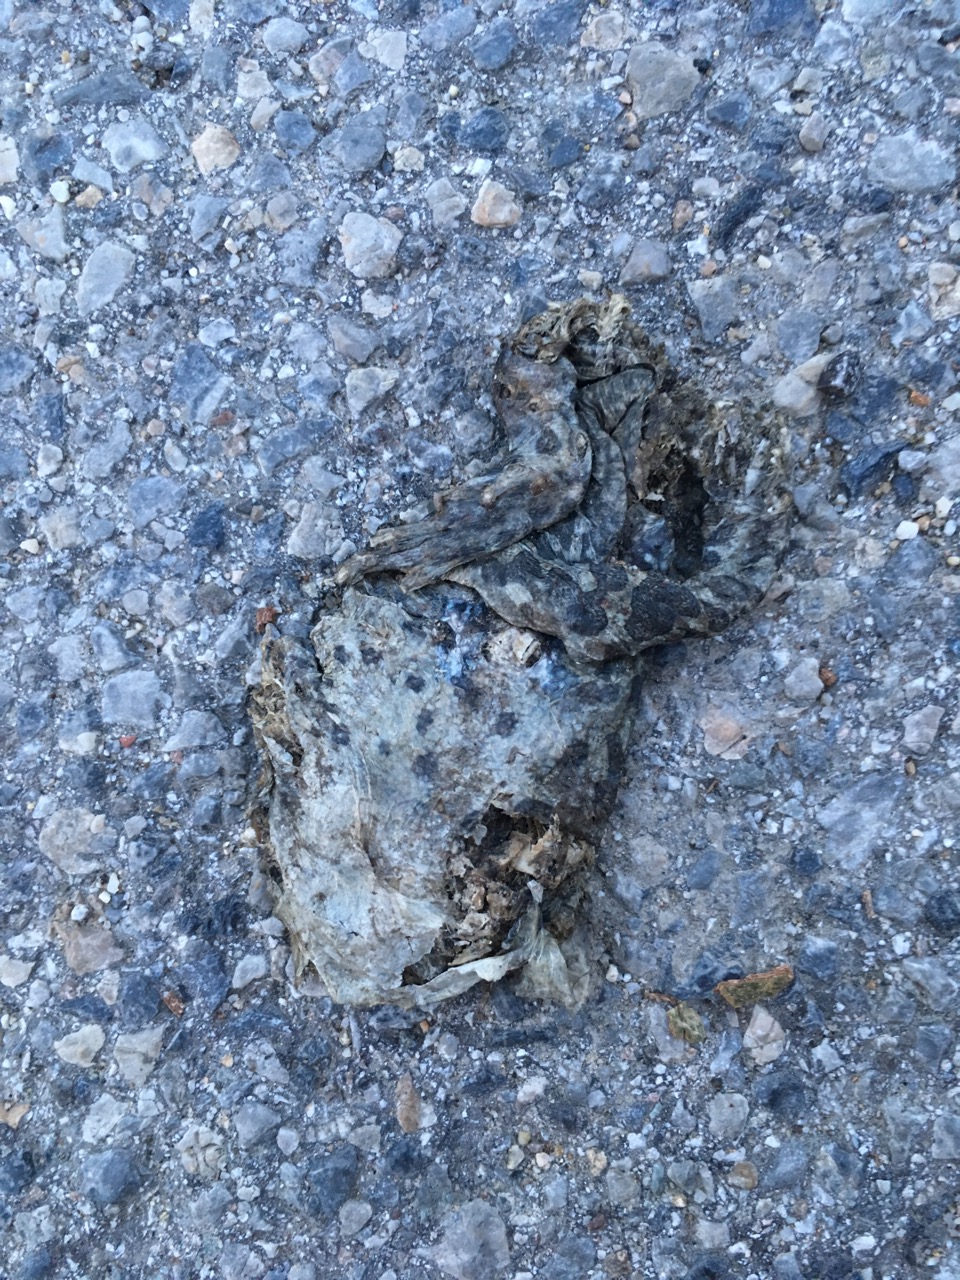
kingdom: Animalia
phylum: Chordata
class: Amphibia
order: Anura
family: Bufonidae
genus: Bufotes
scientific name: Bufotes viridis
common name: European green toad
